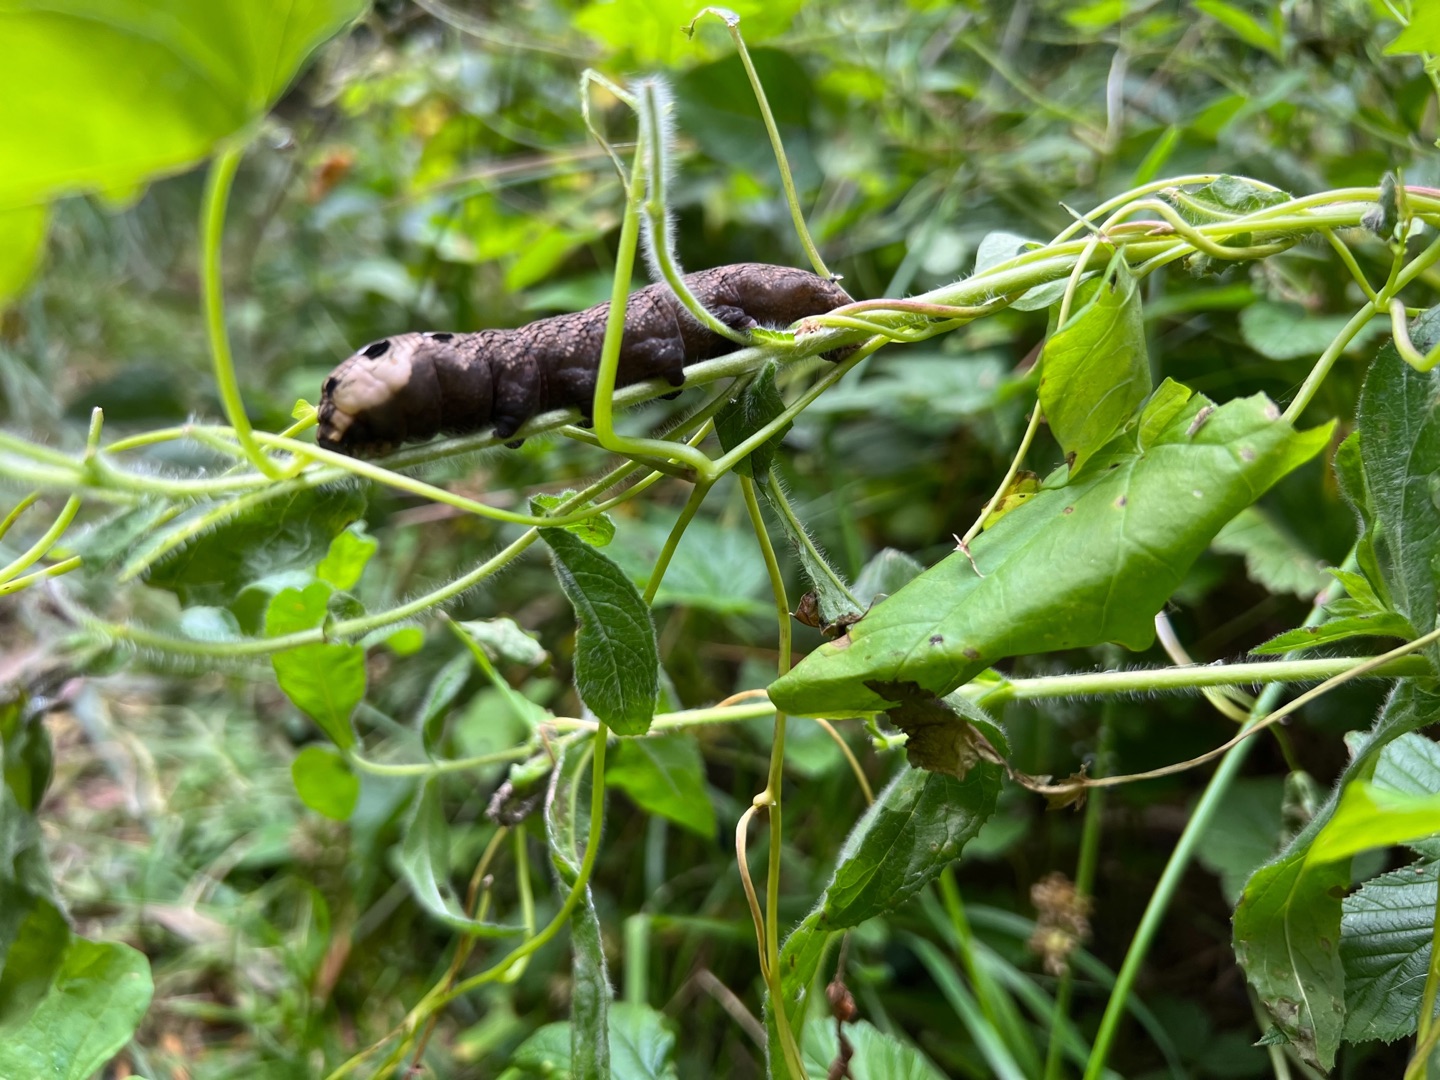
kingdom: Animalia
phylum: Arthropoda
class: Insecta
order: Lepidoptera
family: Sphingidae
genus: Deilephila
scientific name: Deilephila elpenor
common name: Dueurtsværmer
